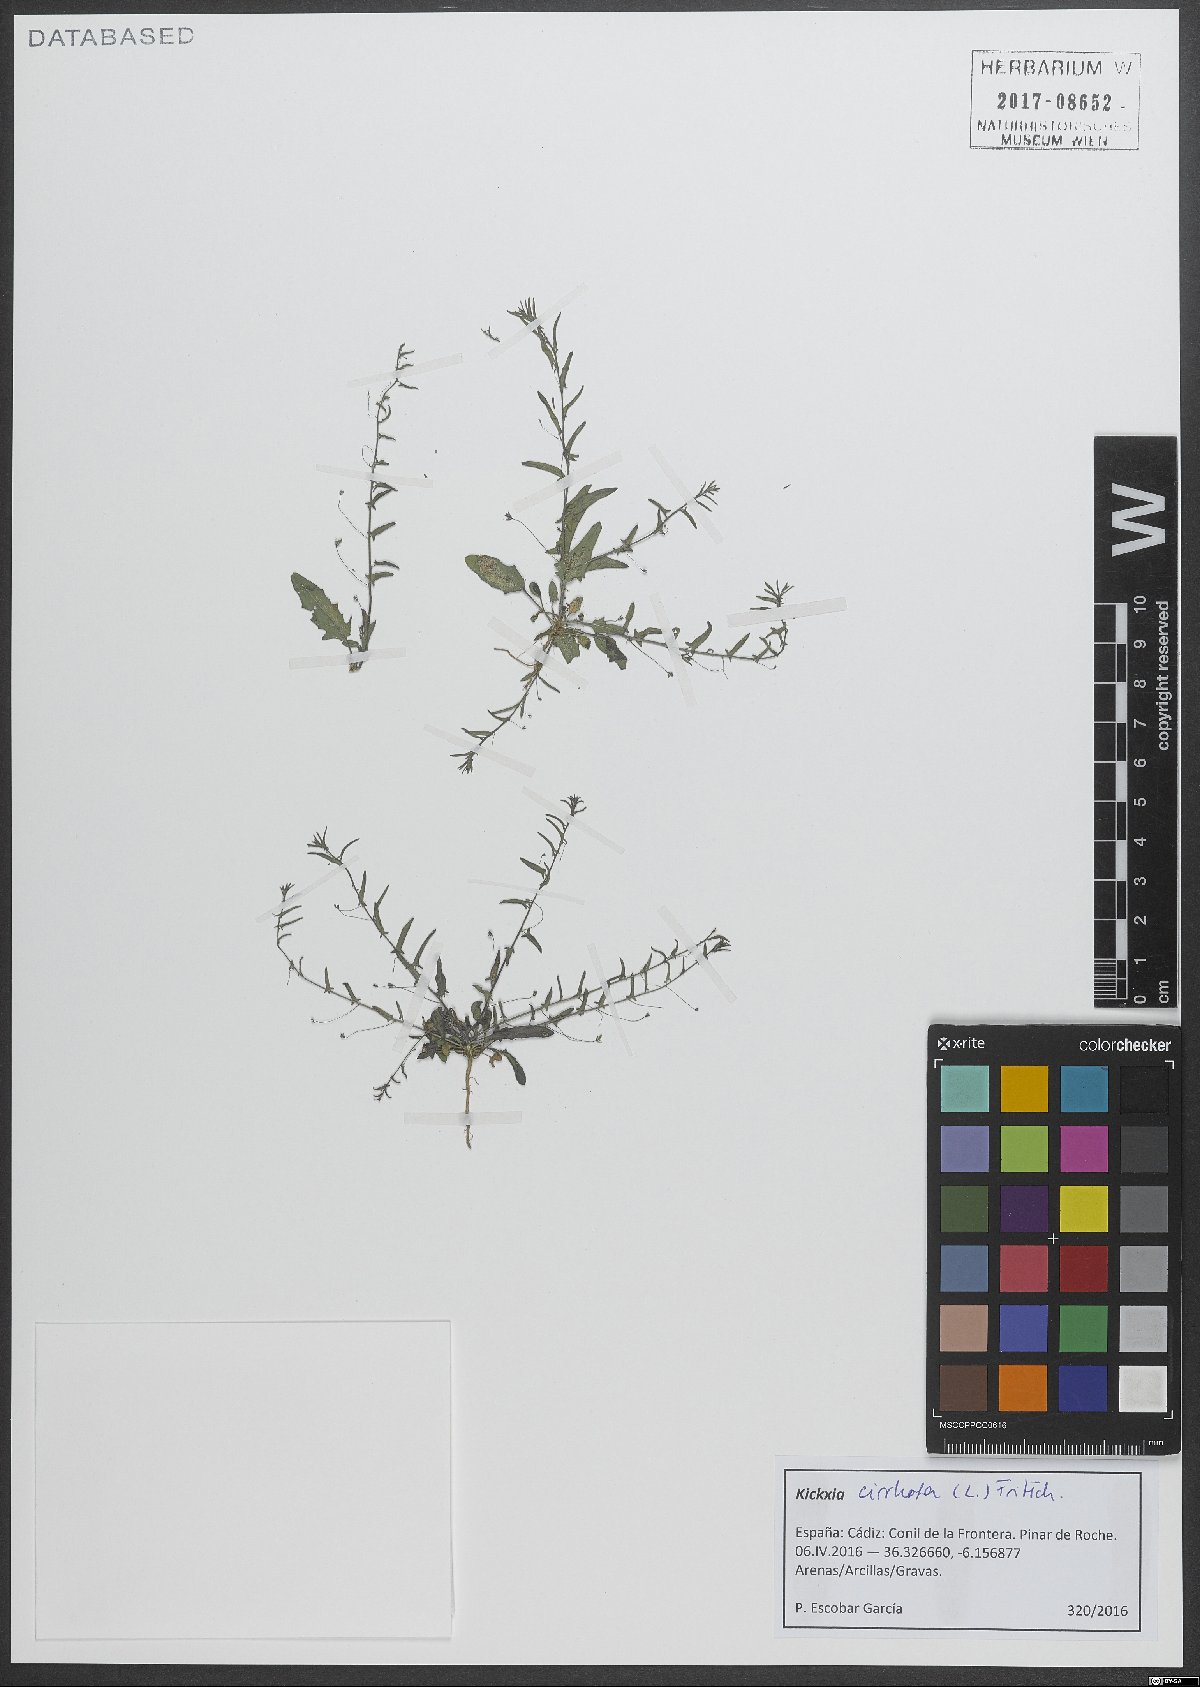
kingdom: Plantae
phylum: Tracheophyta
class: Magnoliopsida
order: Lamiales
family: Plantaginaceae
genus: Kickxia
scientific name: Kickxia cirrhosa
